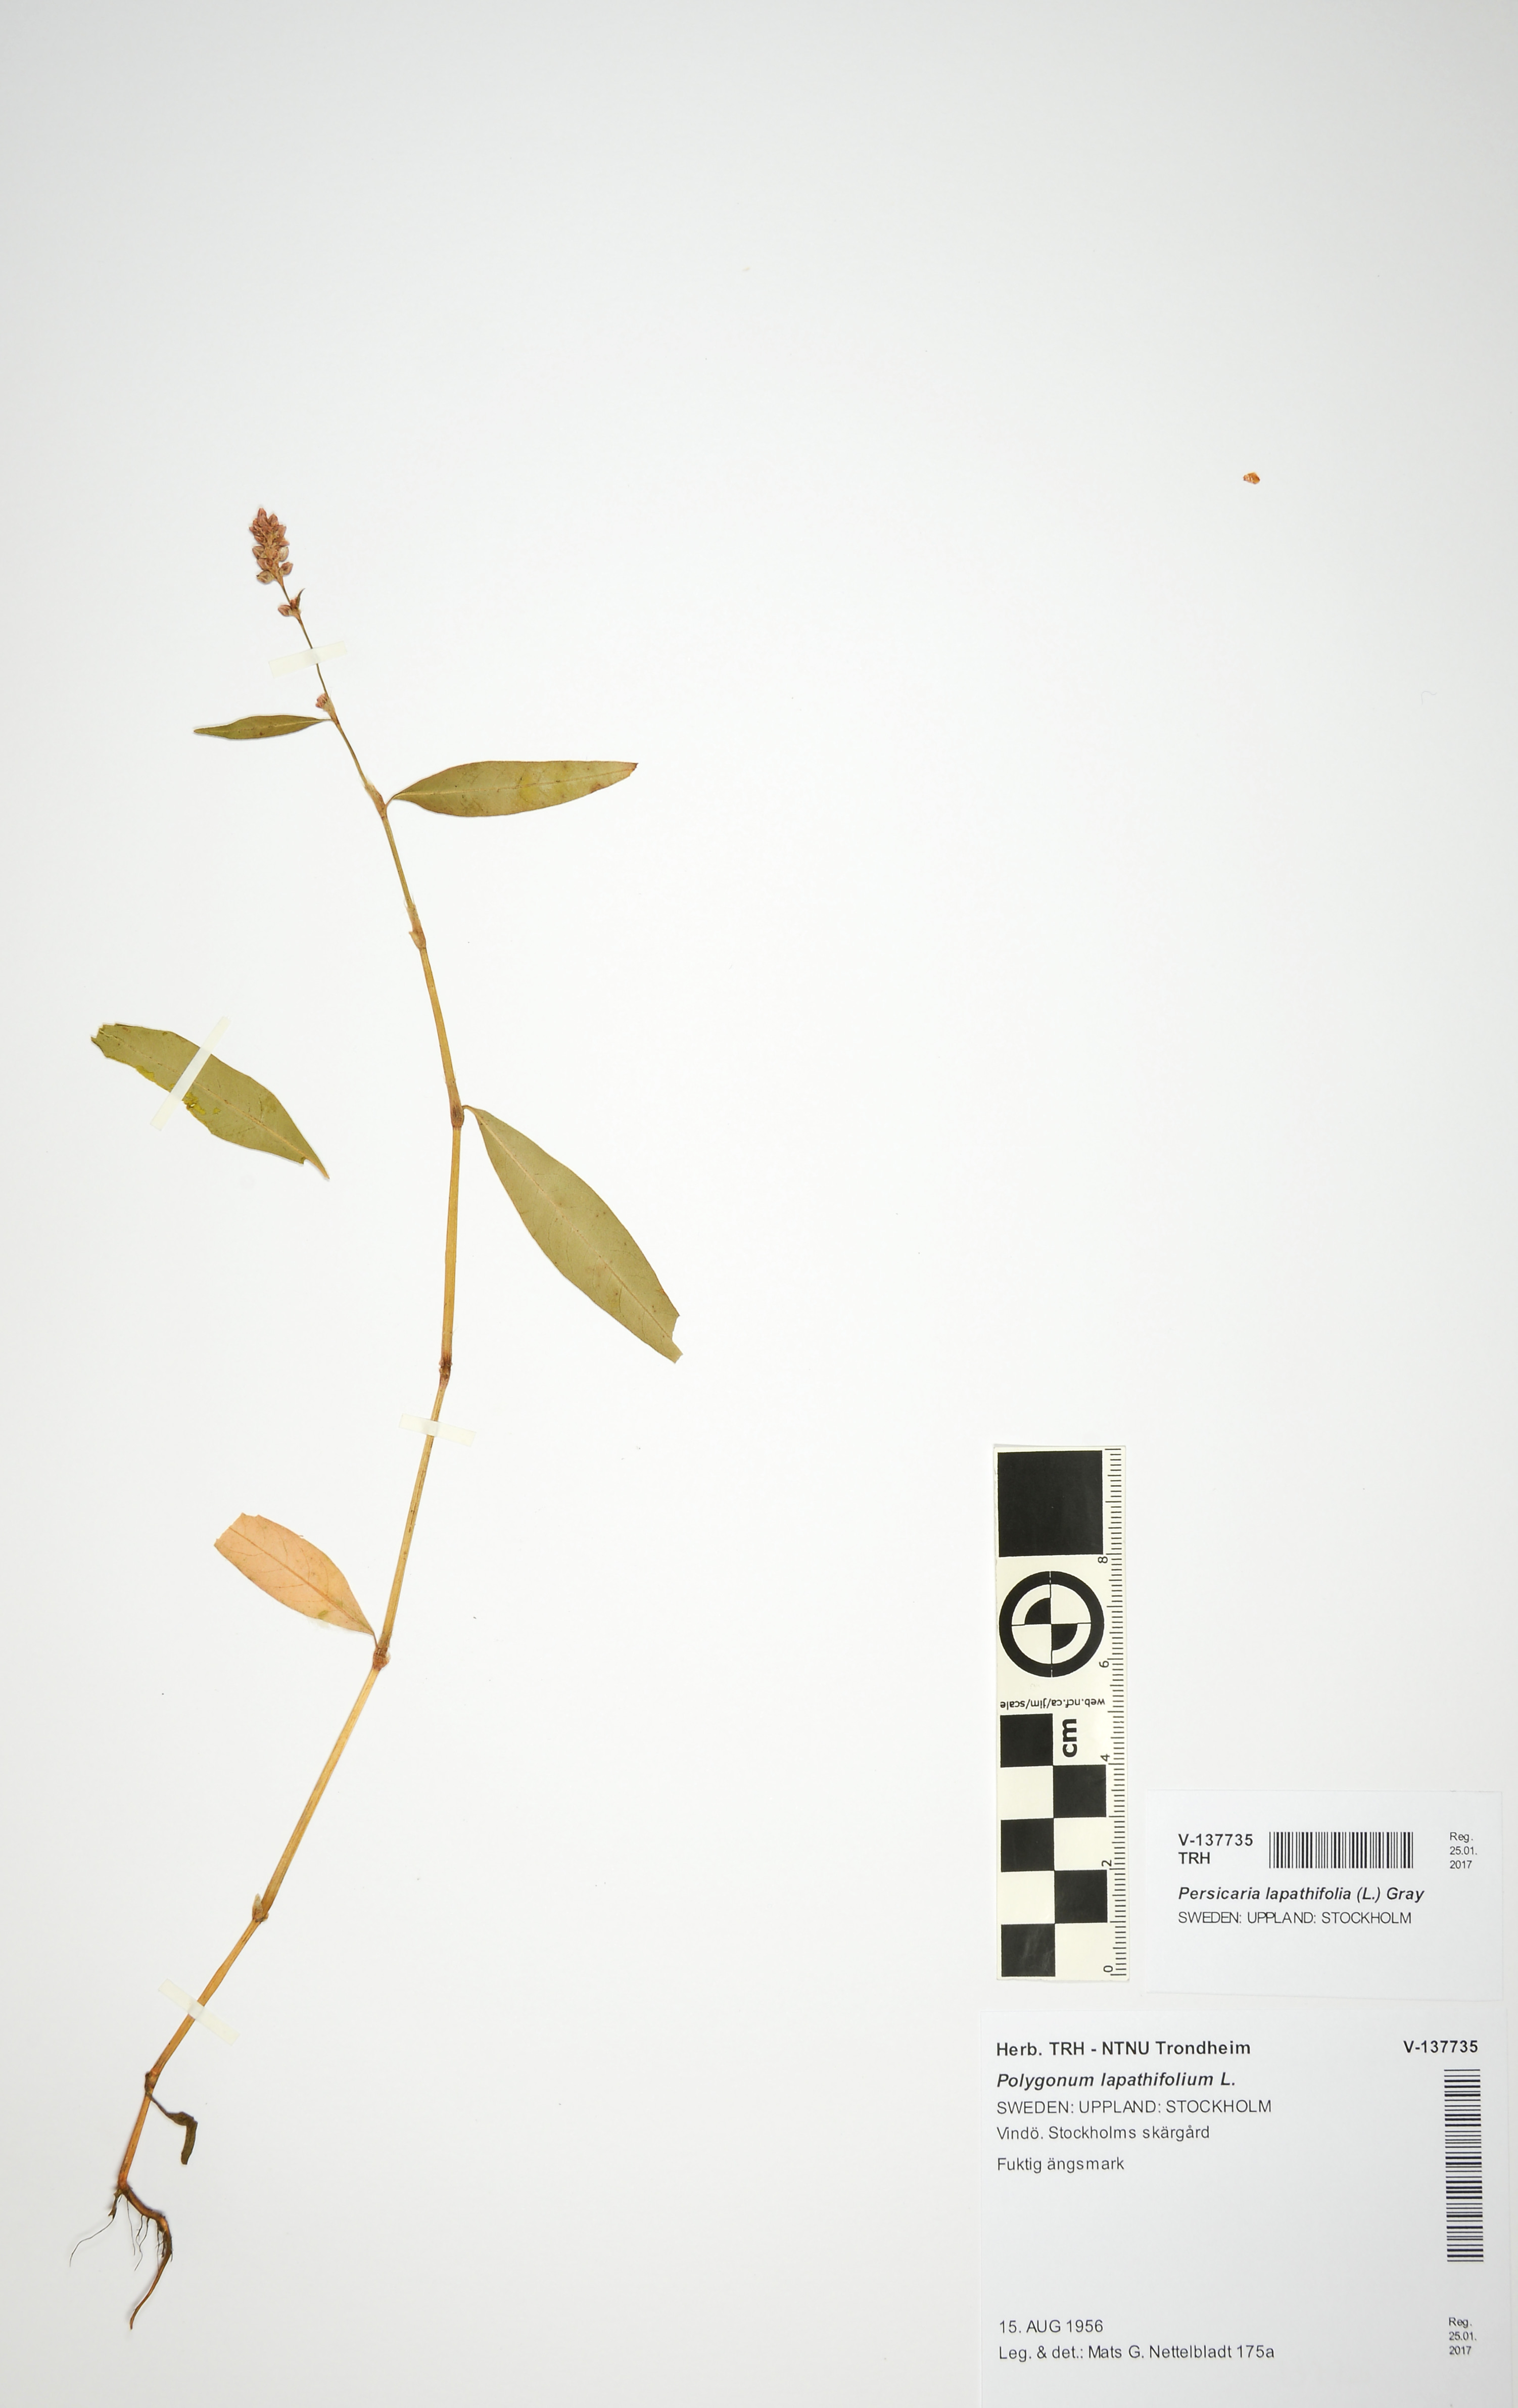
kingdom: Plantae
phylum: Tracheophyta
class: Magnoliopsida
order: Caryophyllales
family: Polygonaceae
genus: Persicaria
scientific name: Persicaria lapathifolia
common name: Curlytop knotweed
